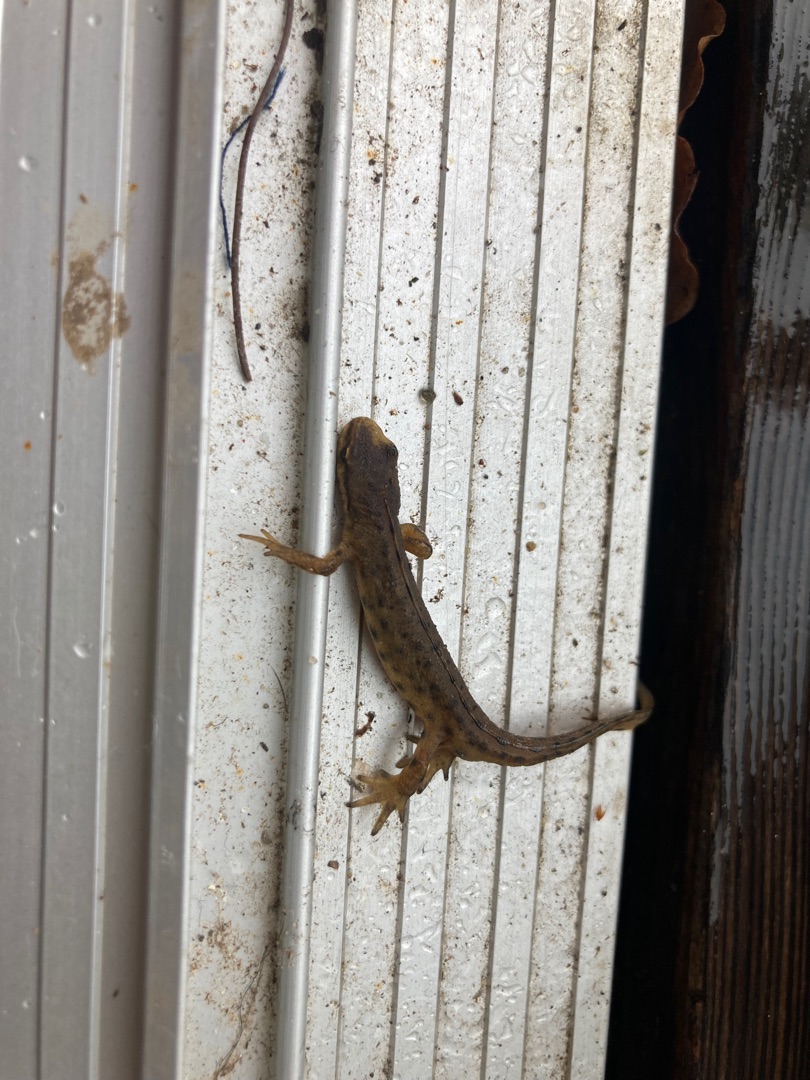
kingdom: Animalia
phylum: Chordata
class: Amphibia
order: Caudata
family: Salamandridae
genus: Lissotriton
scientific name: Lissotriton vulgaris
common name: Lille vandsalamander
